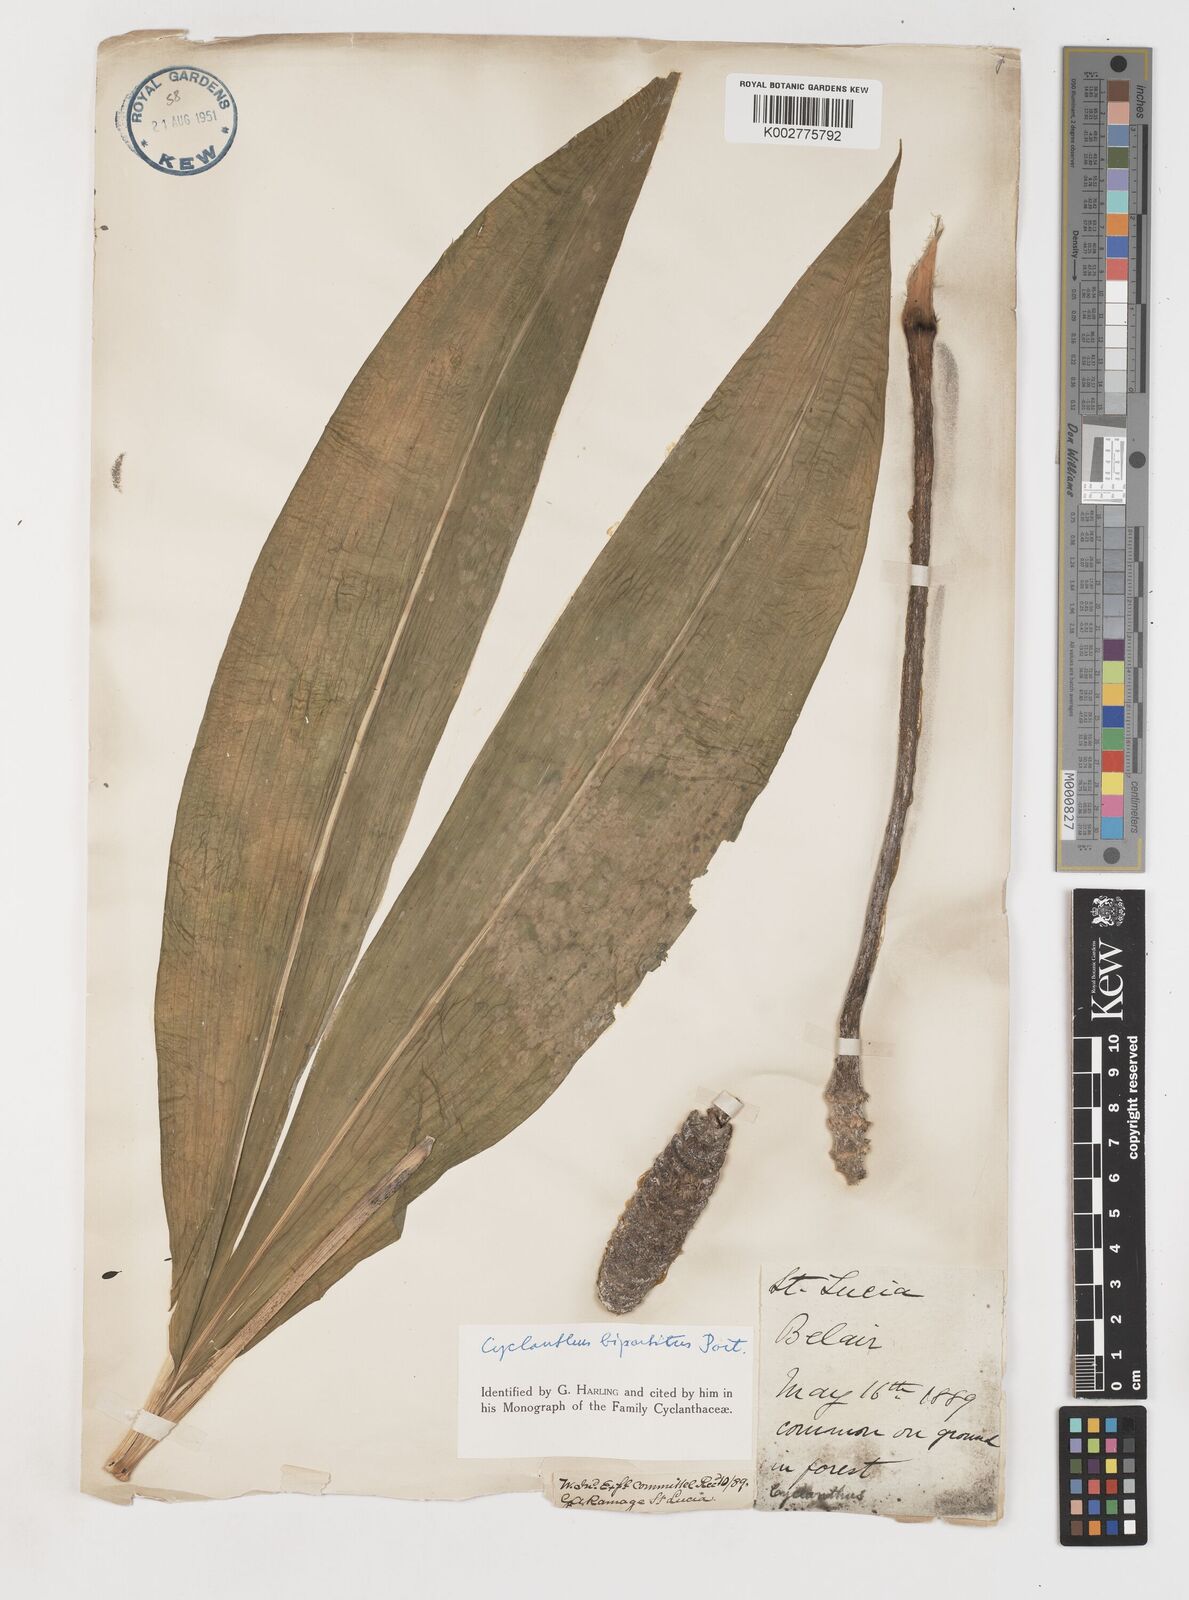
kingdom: Plantae
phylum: Tracheophyta
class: Liliopsida
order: Pandanales
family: Cyclanthaceae
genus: Cyclanthus
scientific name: Cyclanthus bipartitus
